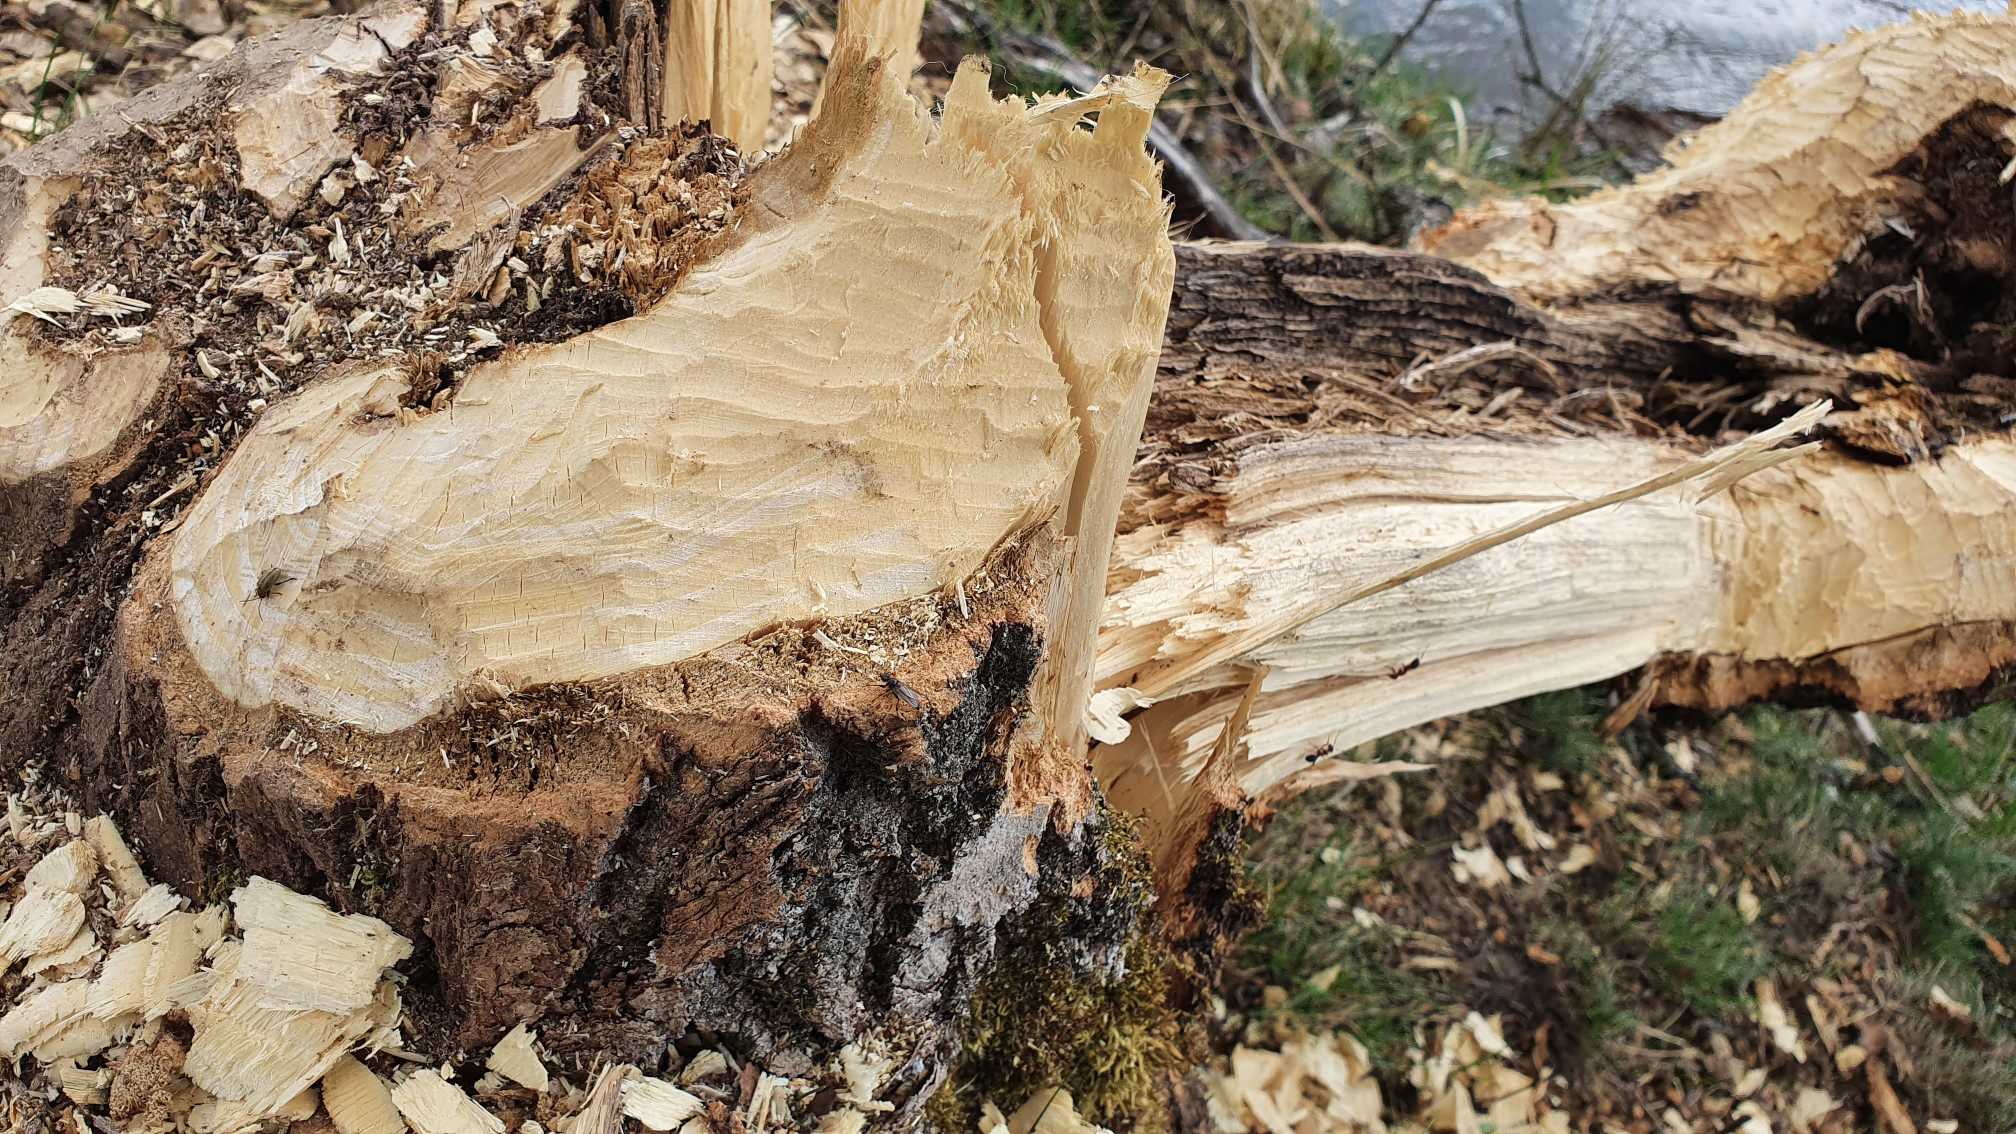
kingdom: Animalia
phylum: Chordata
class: Mammalia
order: Rodentia
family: Castoridae
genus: Castor
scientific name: Castor fiber
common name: Bæver
